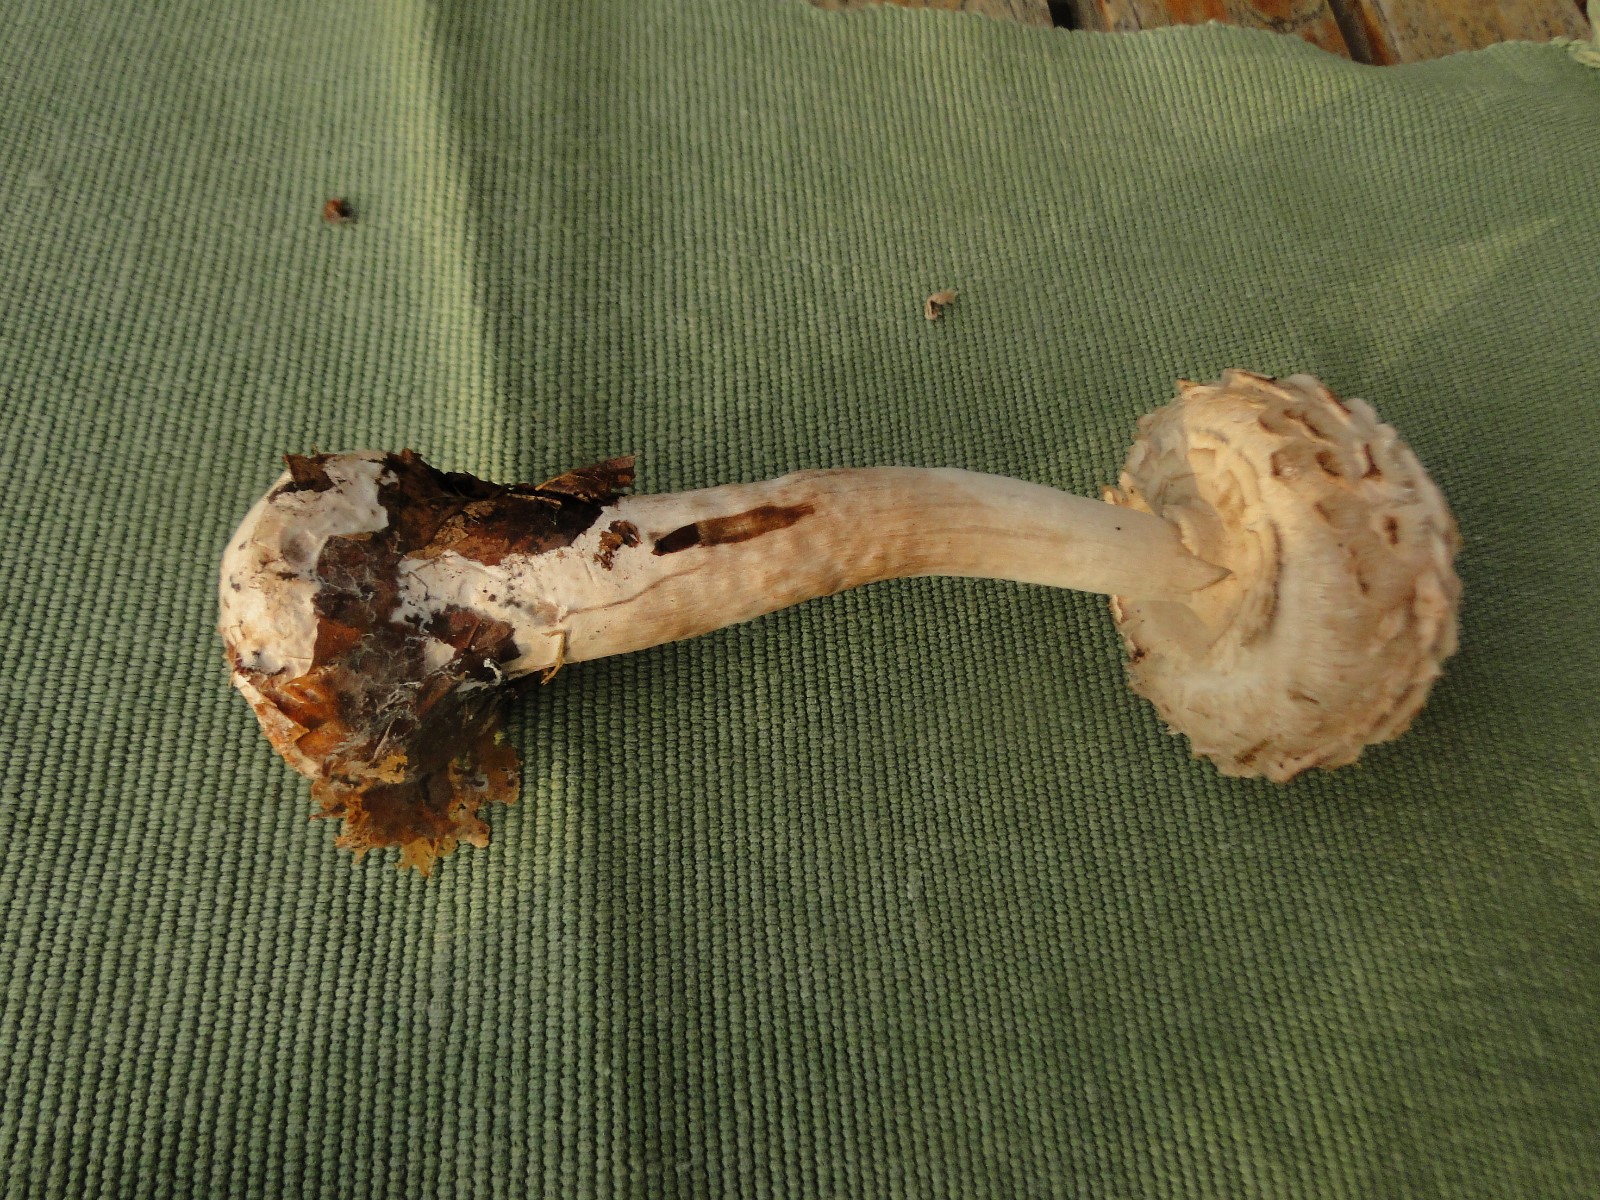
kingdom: Fungi
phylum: Basidiomycota
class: Agaricomycetes
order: Agaricales
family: Agaricaceae
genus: Chlorophyllum
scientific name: Chlorophyllum rhacodes
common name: ægte rabarberhat
